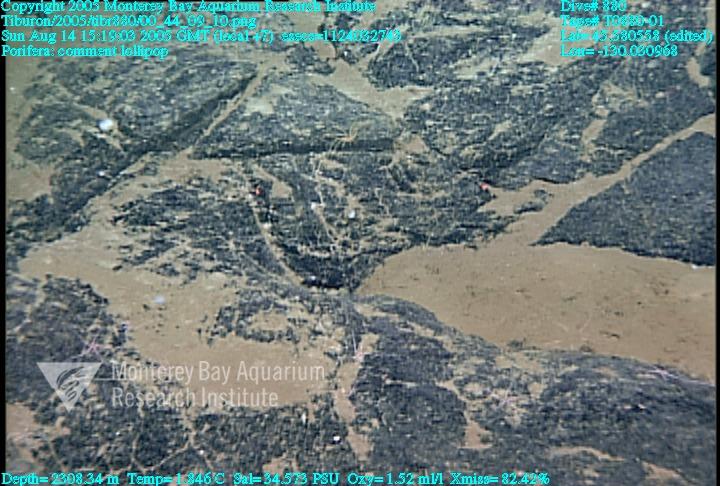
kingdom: Animalia
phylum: Porifera
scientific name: Porifera
